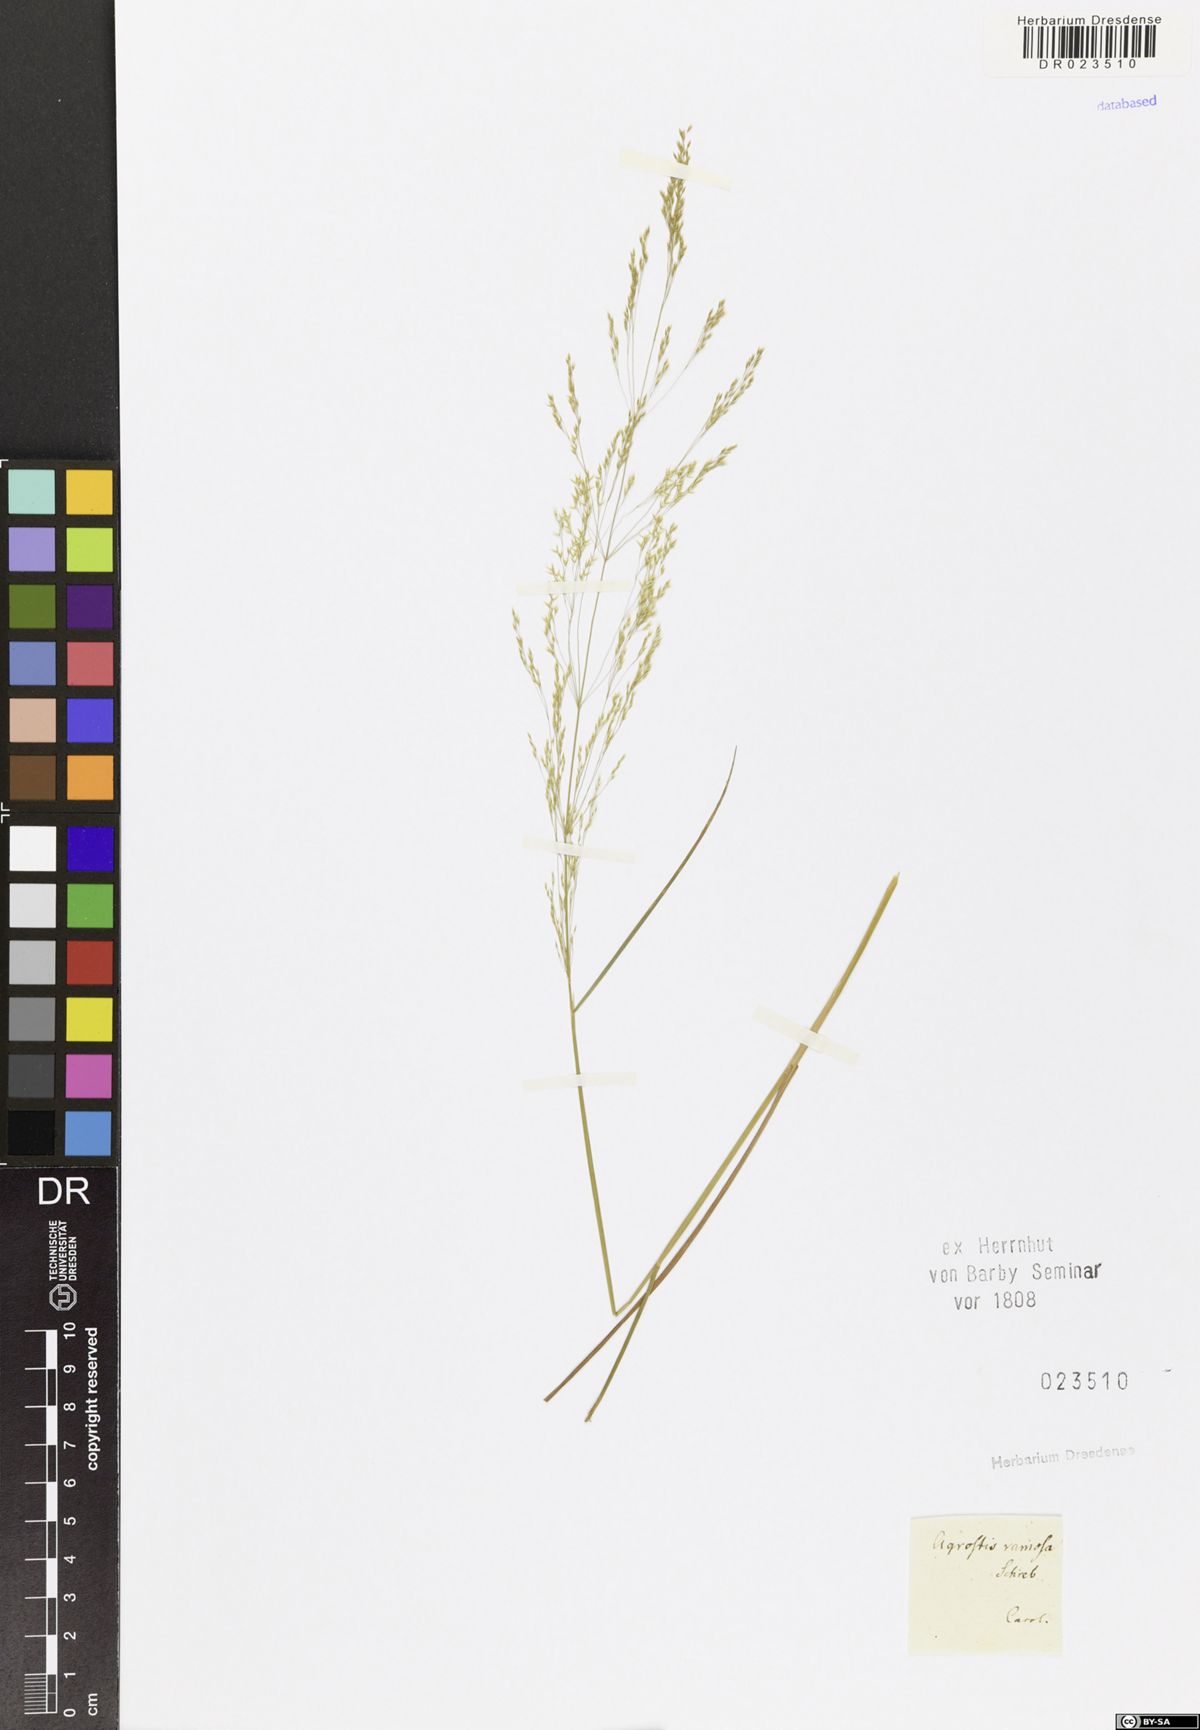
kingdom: Plantae
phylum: Tracheophyta
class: Liliopsida
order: Poales
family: Poaceae
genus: Agrostis
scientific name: Agrostis
